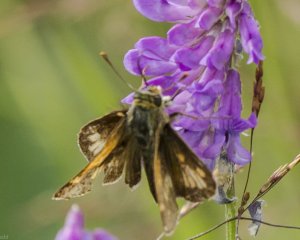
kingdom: Animalia
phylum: Arthropoda
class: Insecta
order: Lepidoptera
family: Hesperiidae
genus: Polites
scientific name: Polites coras
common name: Peck's Skipper
